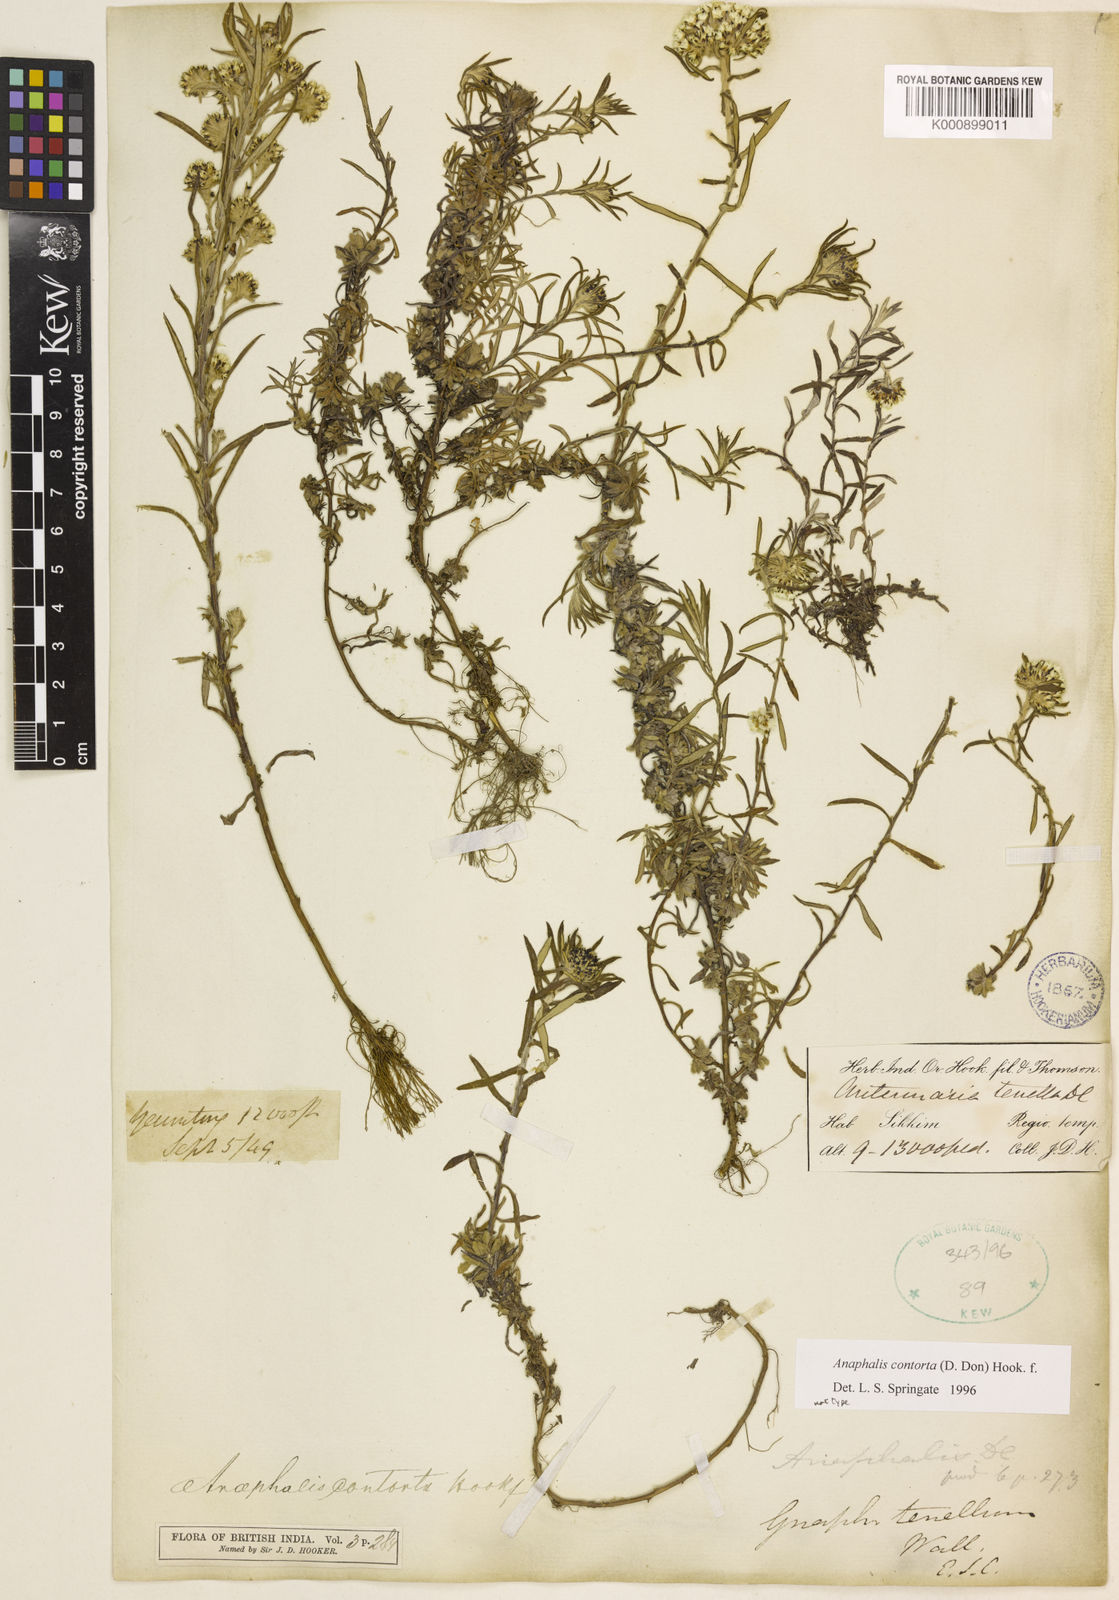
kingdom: Plantae
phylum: Tracheophyta
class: Magnoliopsida
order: Asterales
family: Asteraceae
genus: Anaphalis
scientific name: Anaphalis contorta
